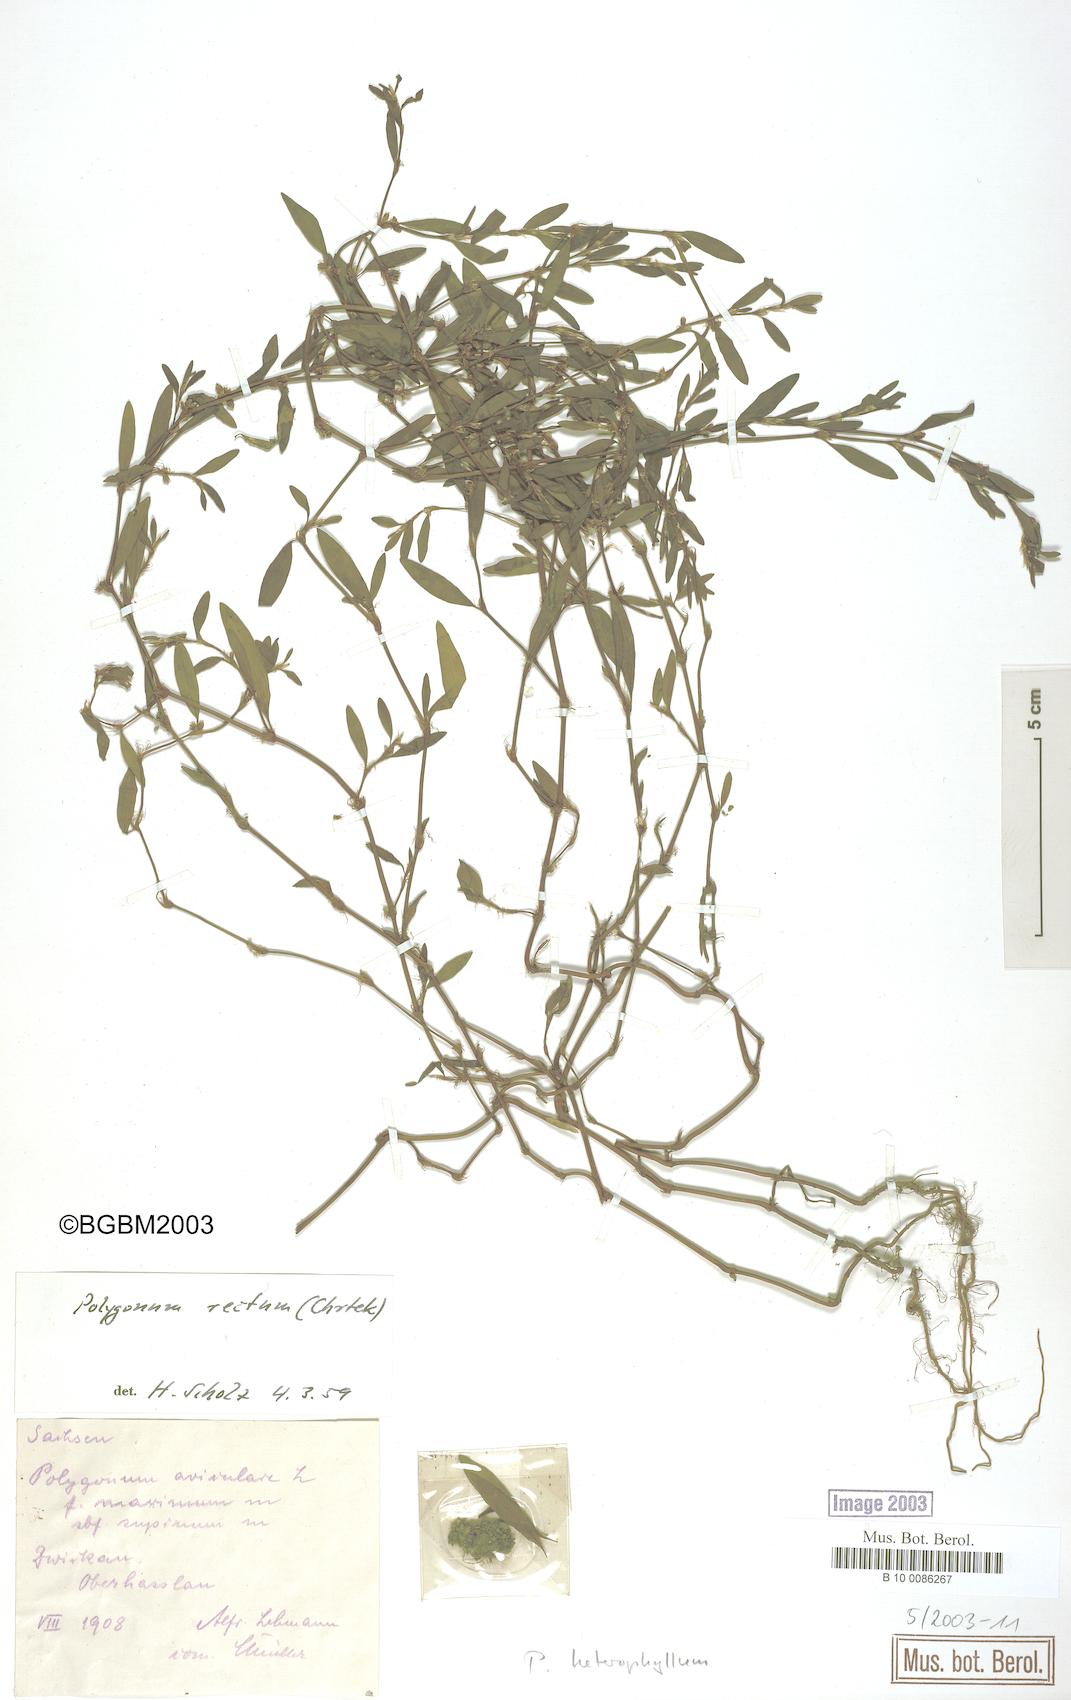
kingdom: Plantae
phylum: Tracheophyta
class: Magnoliopsida
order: Caryophyllales
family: Polygonaceae
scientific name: Polygonaceae
